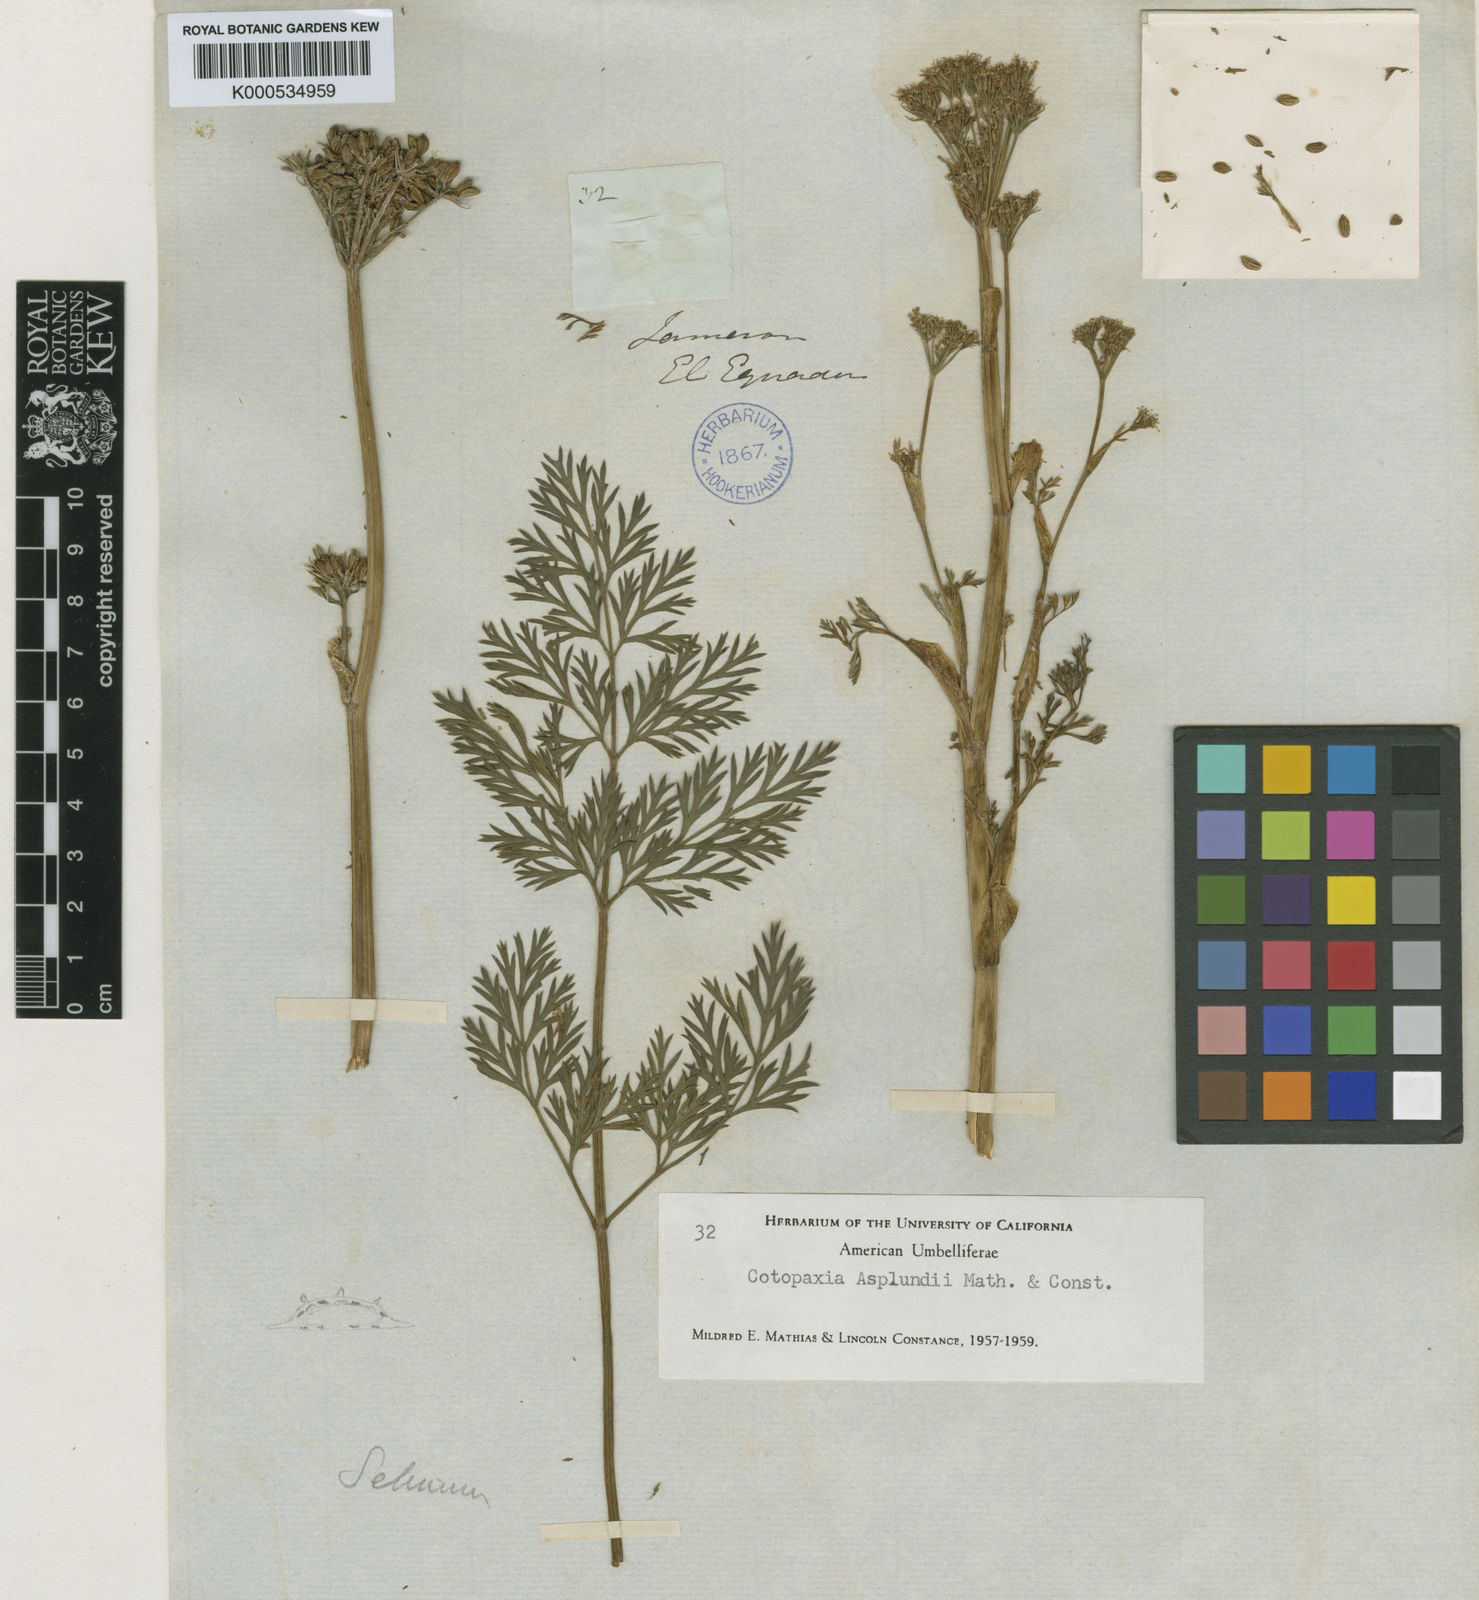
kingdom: Plantae
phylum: Tracheophyta
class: Magnoliopsida
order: Apiales
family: Apiaceae
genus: Cotopaxia
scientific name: Cotopaxia asplundii
